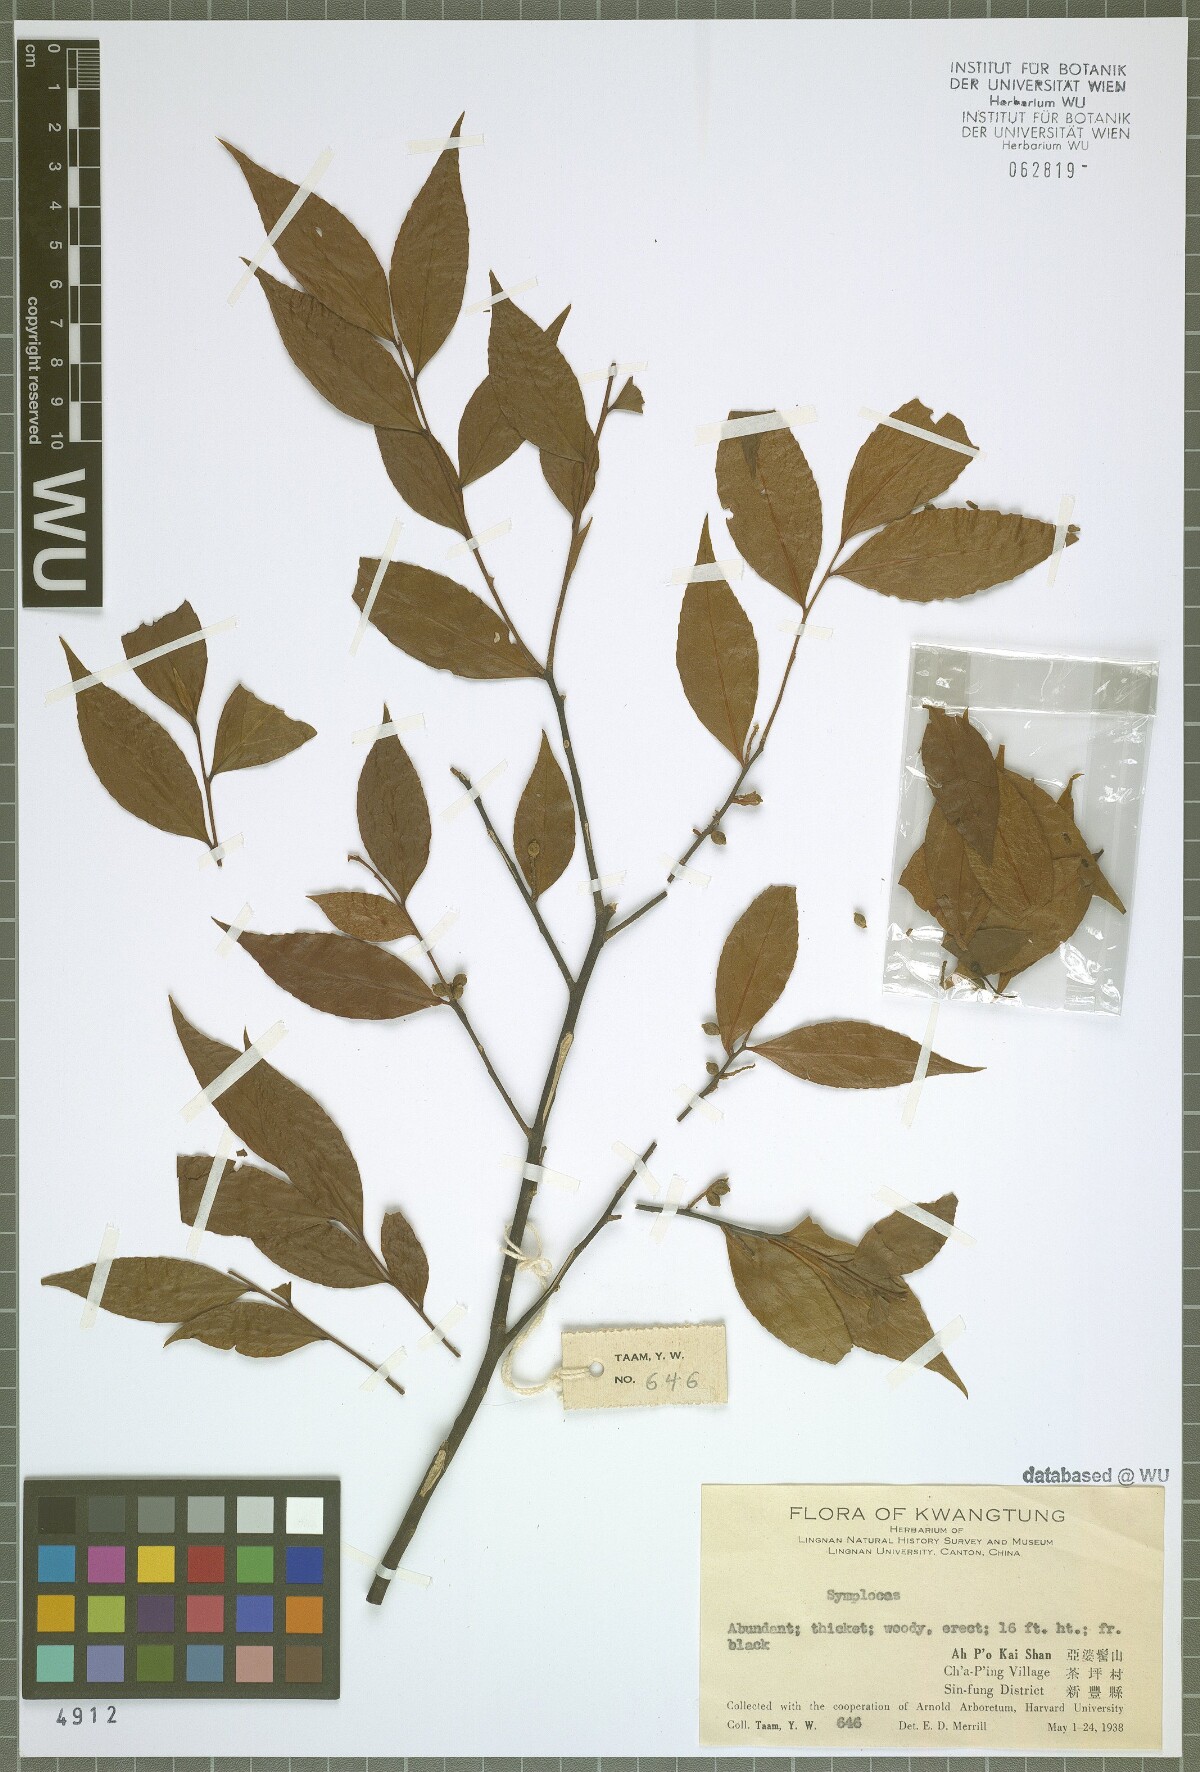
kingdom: Plantae
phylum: Tracheophyta
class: Magnoliopsida
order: Ericales
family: Symplocaceae
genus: Symplocos
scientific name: Symplocos
